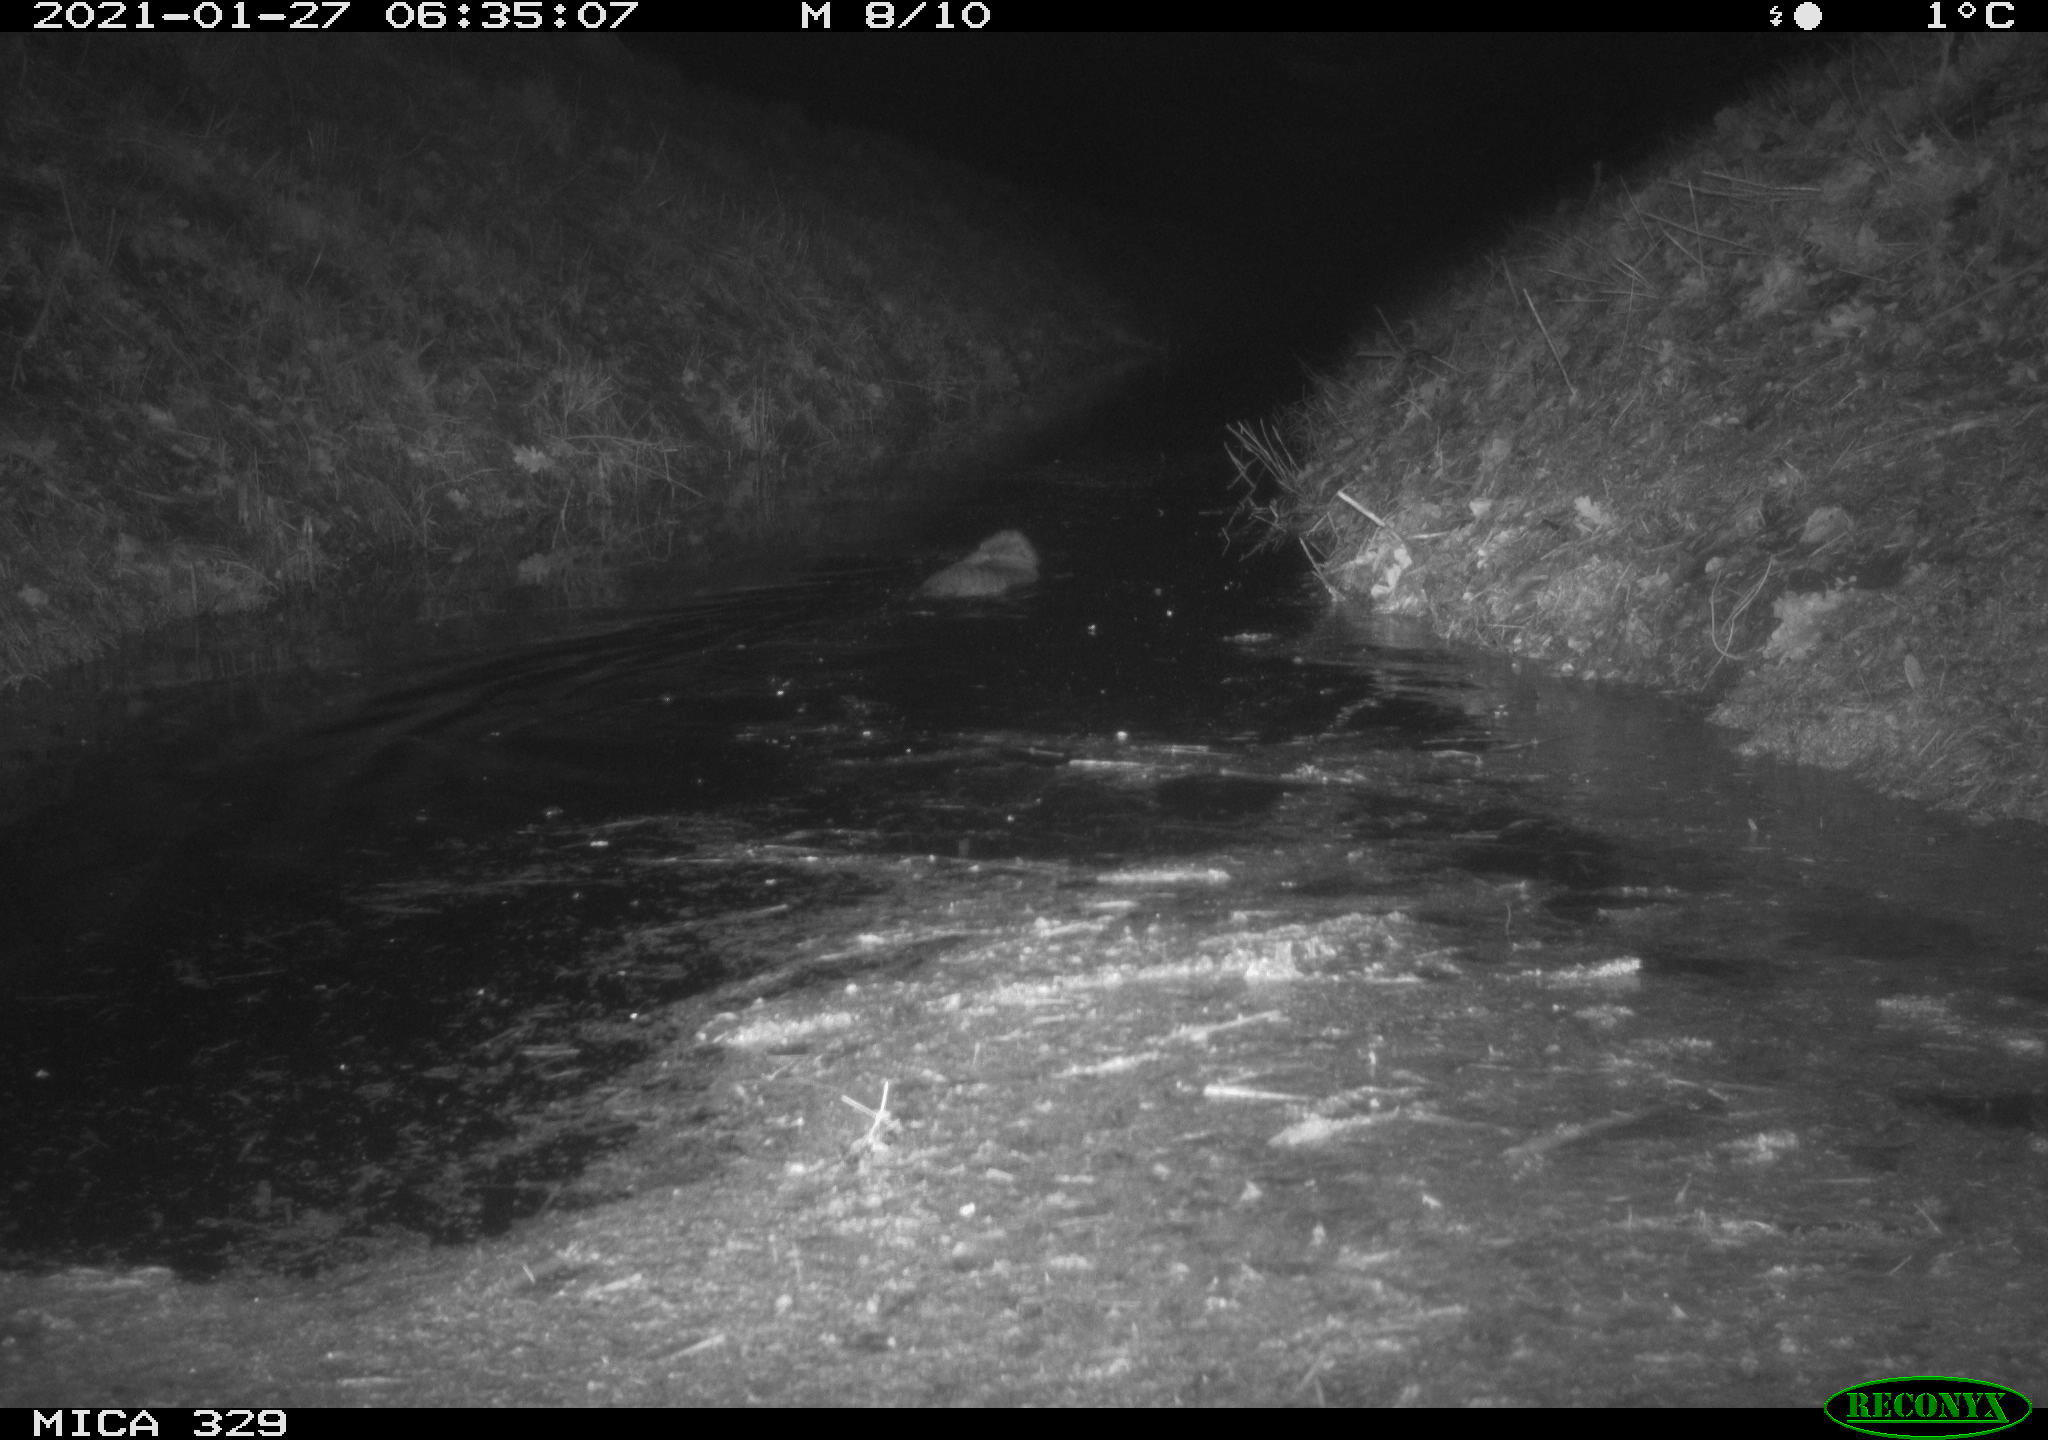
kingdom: Animalia
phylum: Chordata
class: Mammalia
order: Rodentia
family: Myocastoridae
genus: Myocastor
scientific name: Myocastor coypus
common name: Coypu
